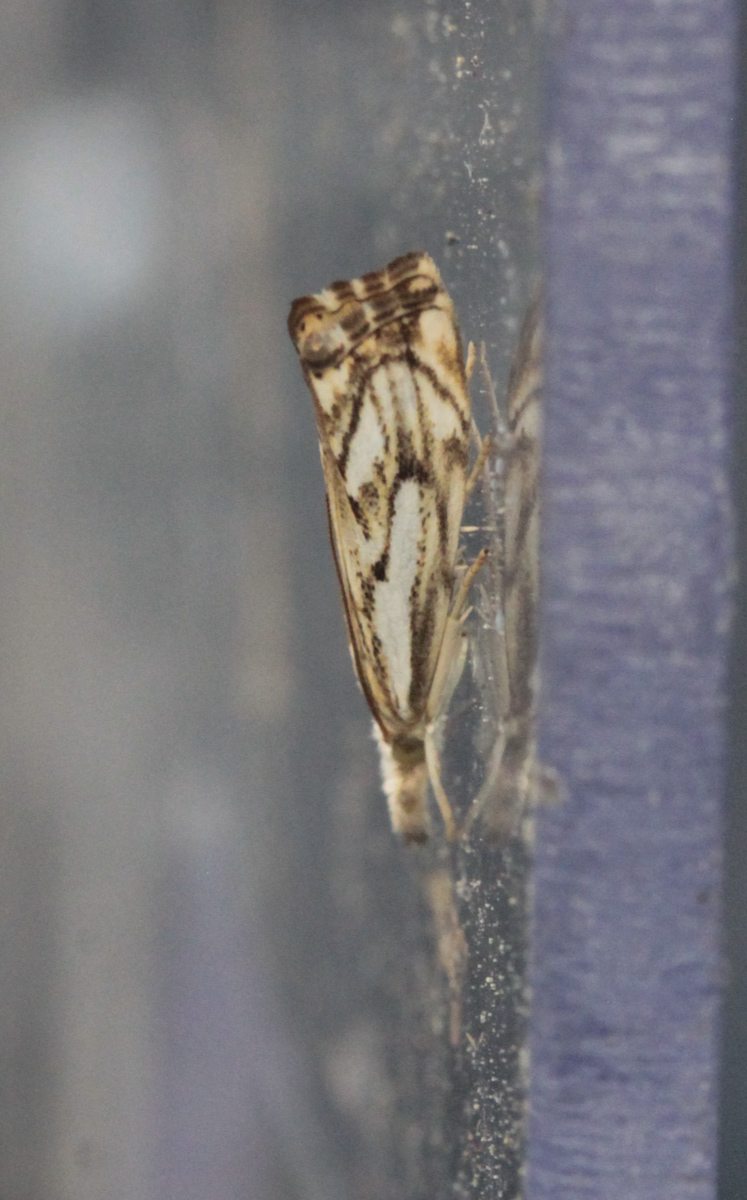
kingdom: Animalia
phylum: Arthropoda
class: Insecta
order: Lepidoptera
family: Crambidae
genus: Catoptria
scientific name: Catoptria falsella
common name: Chequered grass-veneer
